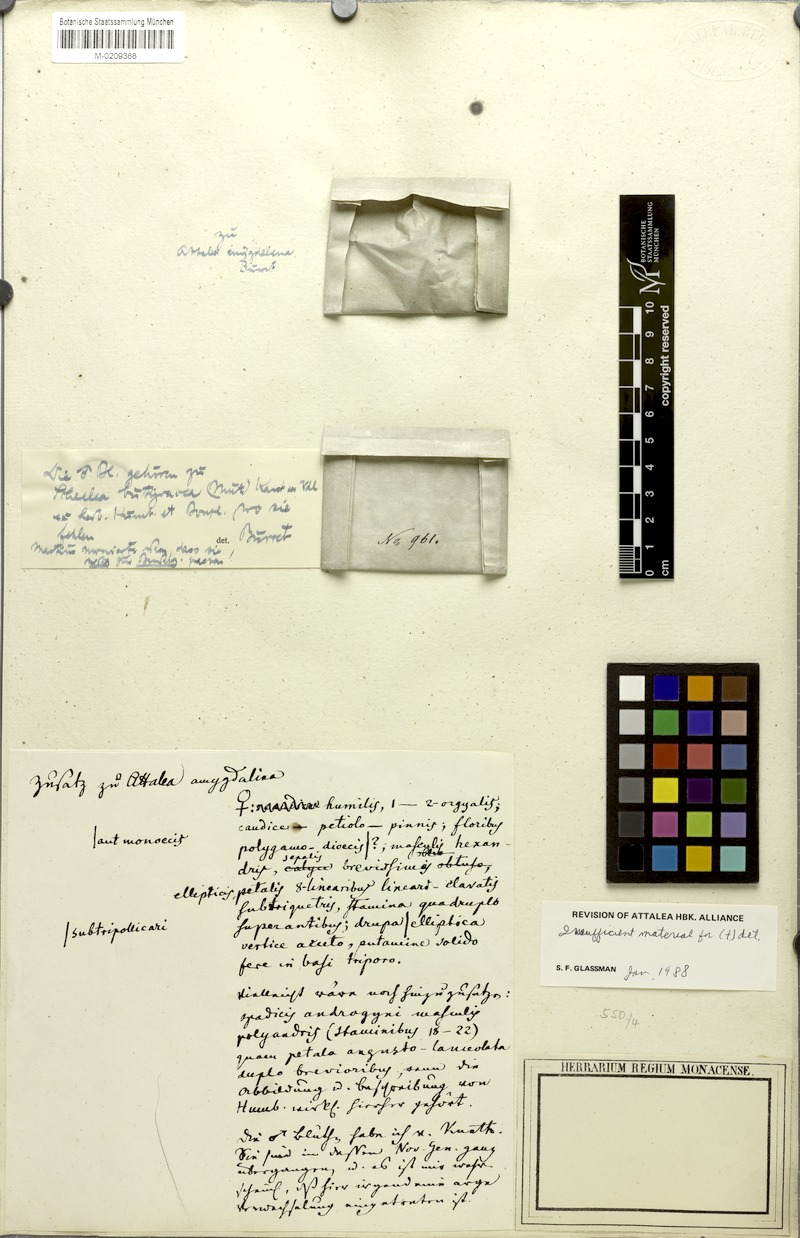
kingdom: Plantae
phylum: Tracheophyta
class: Liliopsida
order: Arecales
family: Arecaceae
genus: Attalea
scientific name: Attalea
